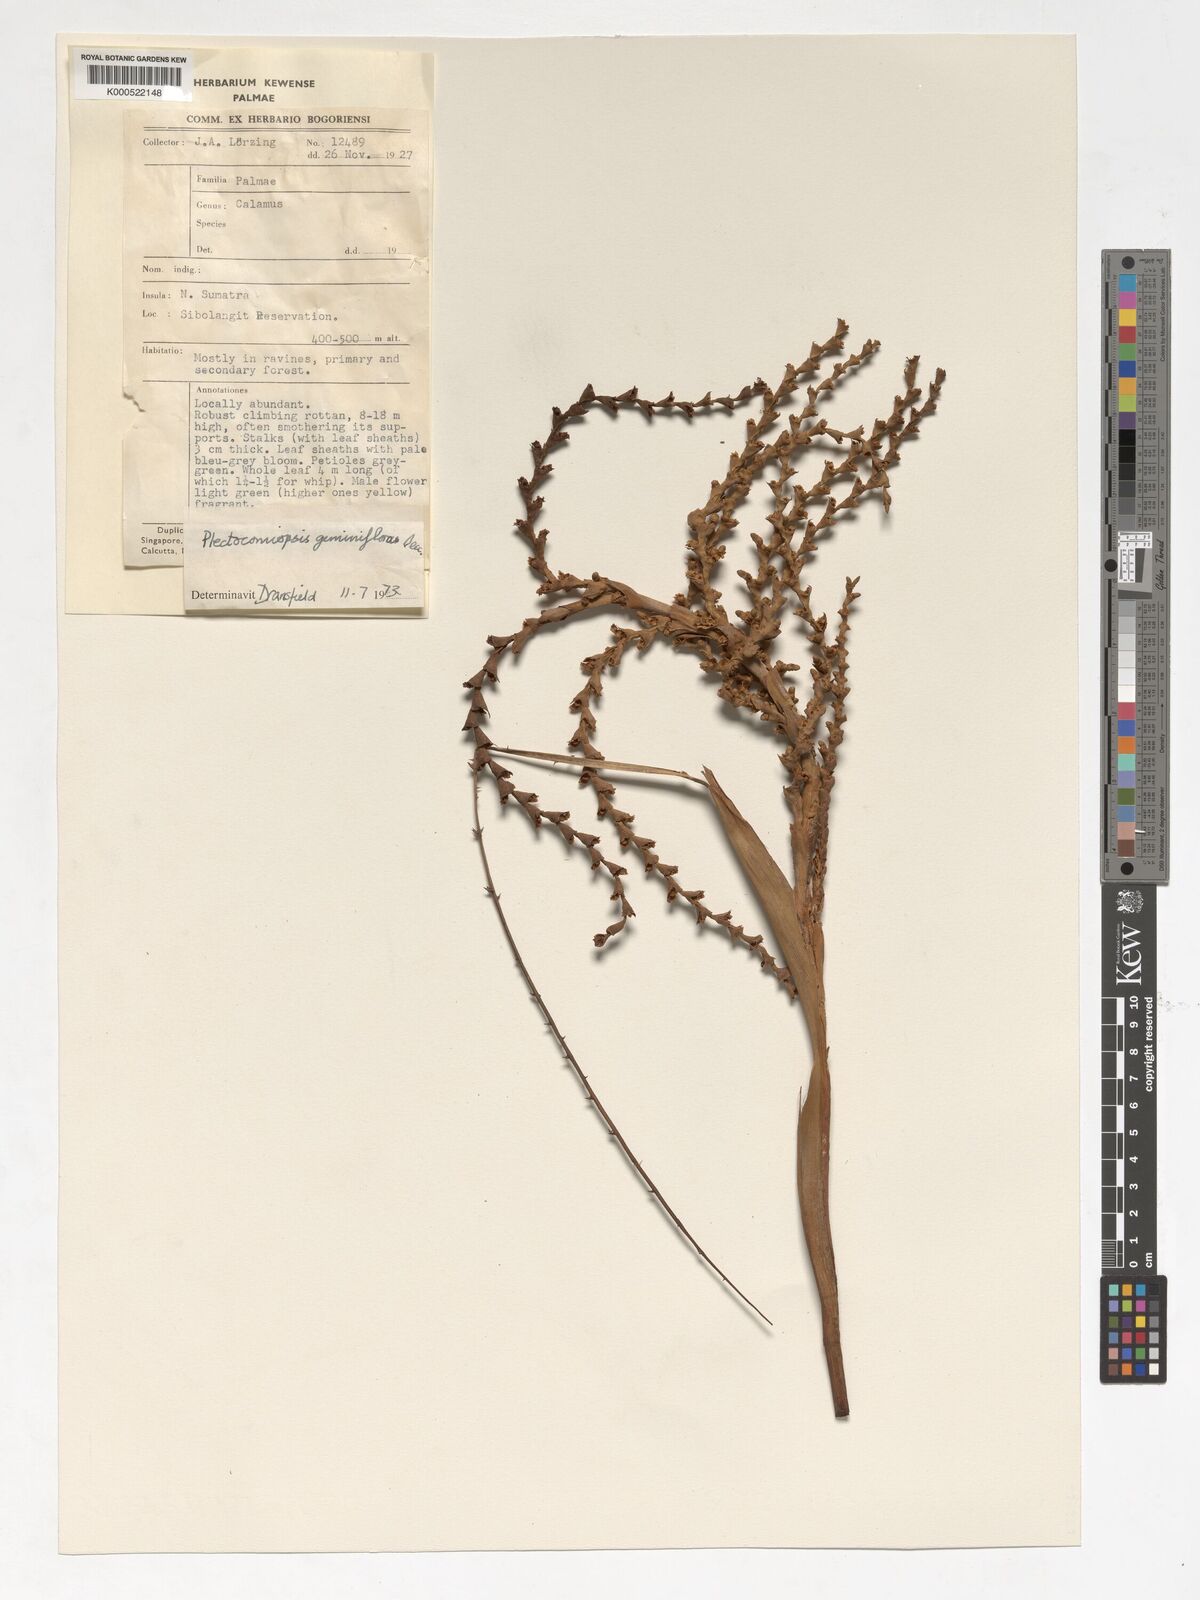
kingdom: Plantae
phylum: Tracheophyta
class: Liliopsida
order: Arecales
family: Arecaceae
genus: Plectocomiopsis
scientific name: Plectocomiopsis geminiflora
